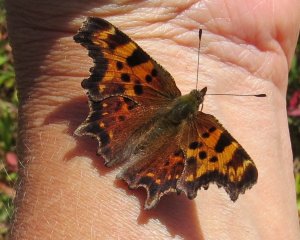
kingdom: Animalia
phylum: Arthropoda
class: Insecta
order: Lepidoptera
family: Nymphalidae
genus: Polygonia
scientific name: Polygonia faunus
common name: Green Comma
